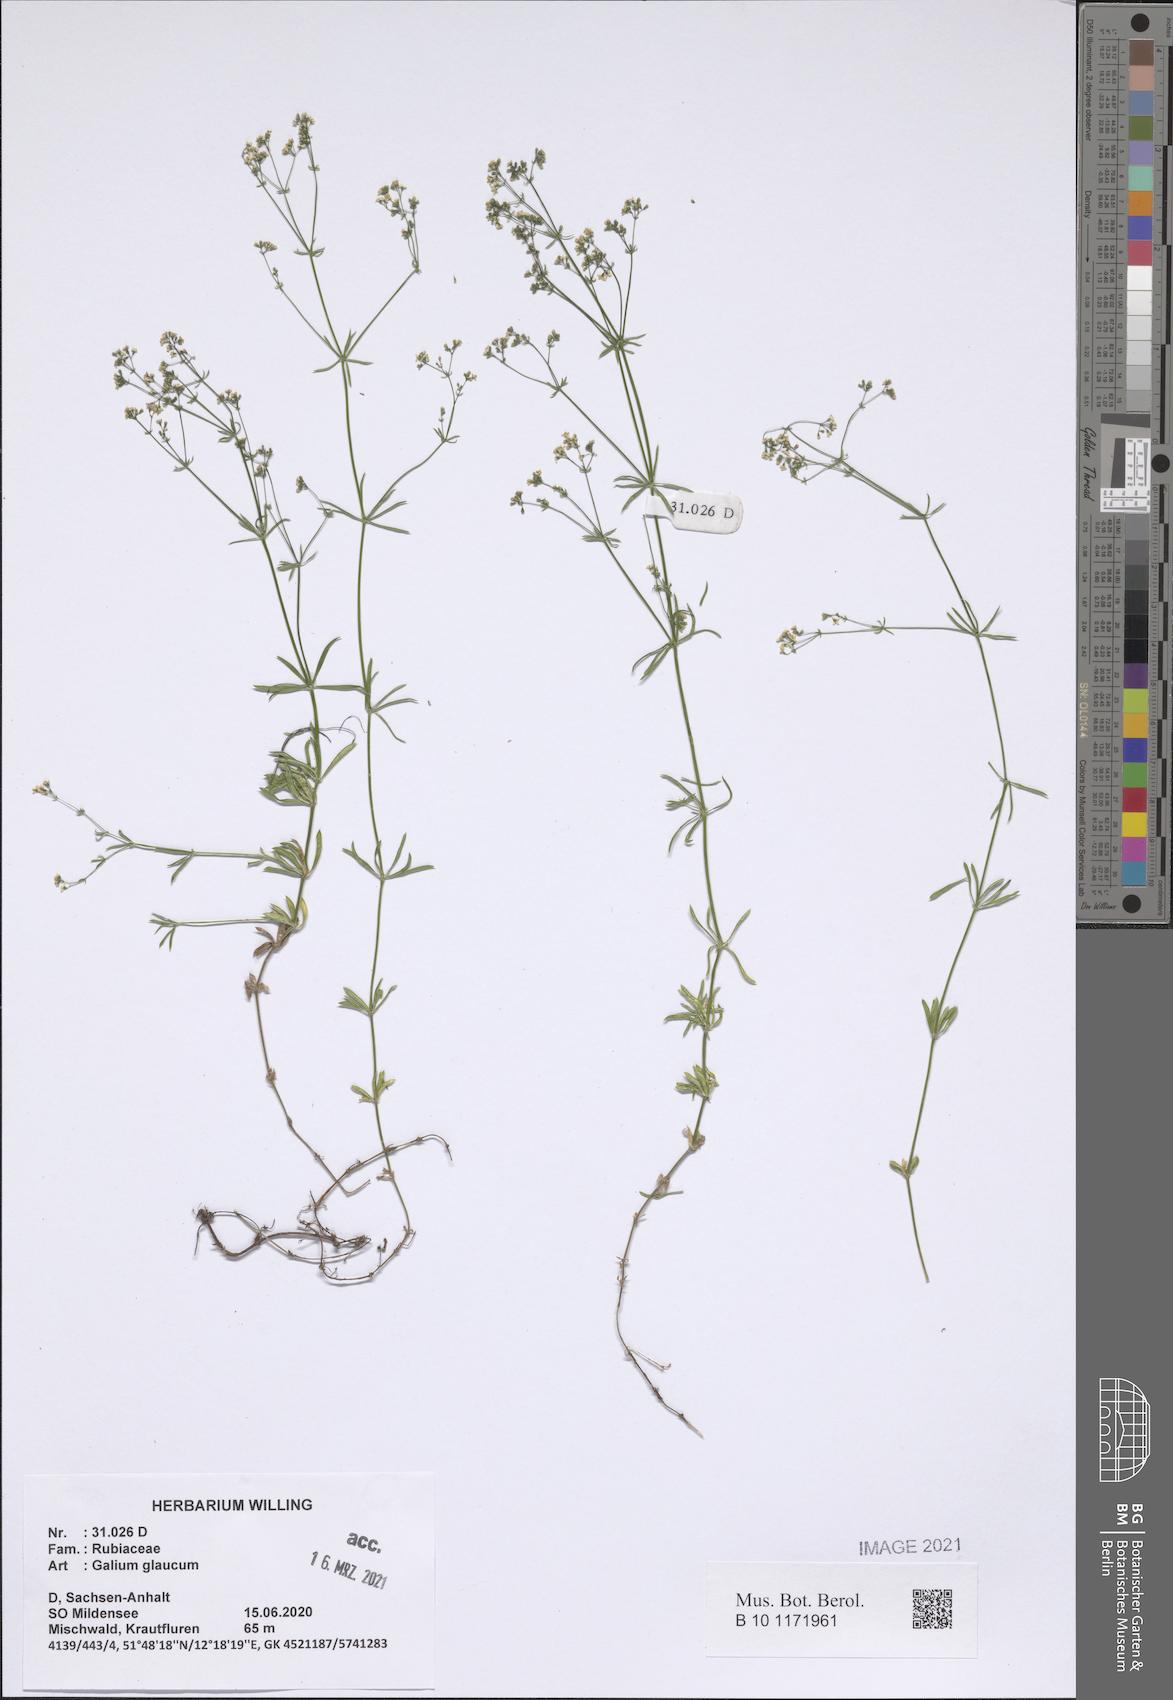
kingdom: Plantae
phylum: Tracheophyta
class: Magnoliopsida
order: Gentianales
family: Rubiaceae
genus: Galium
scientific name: Galium glaucum
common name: Waxy bedstraw
